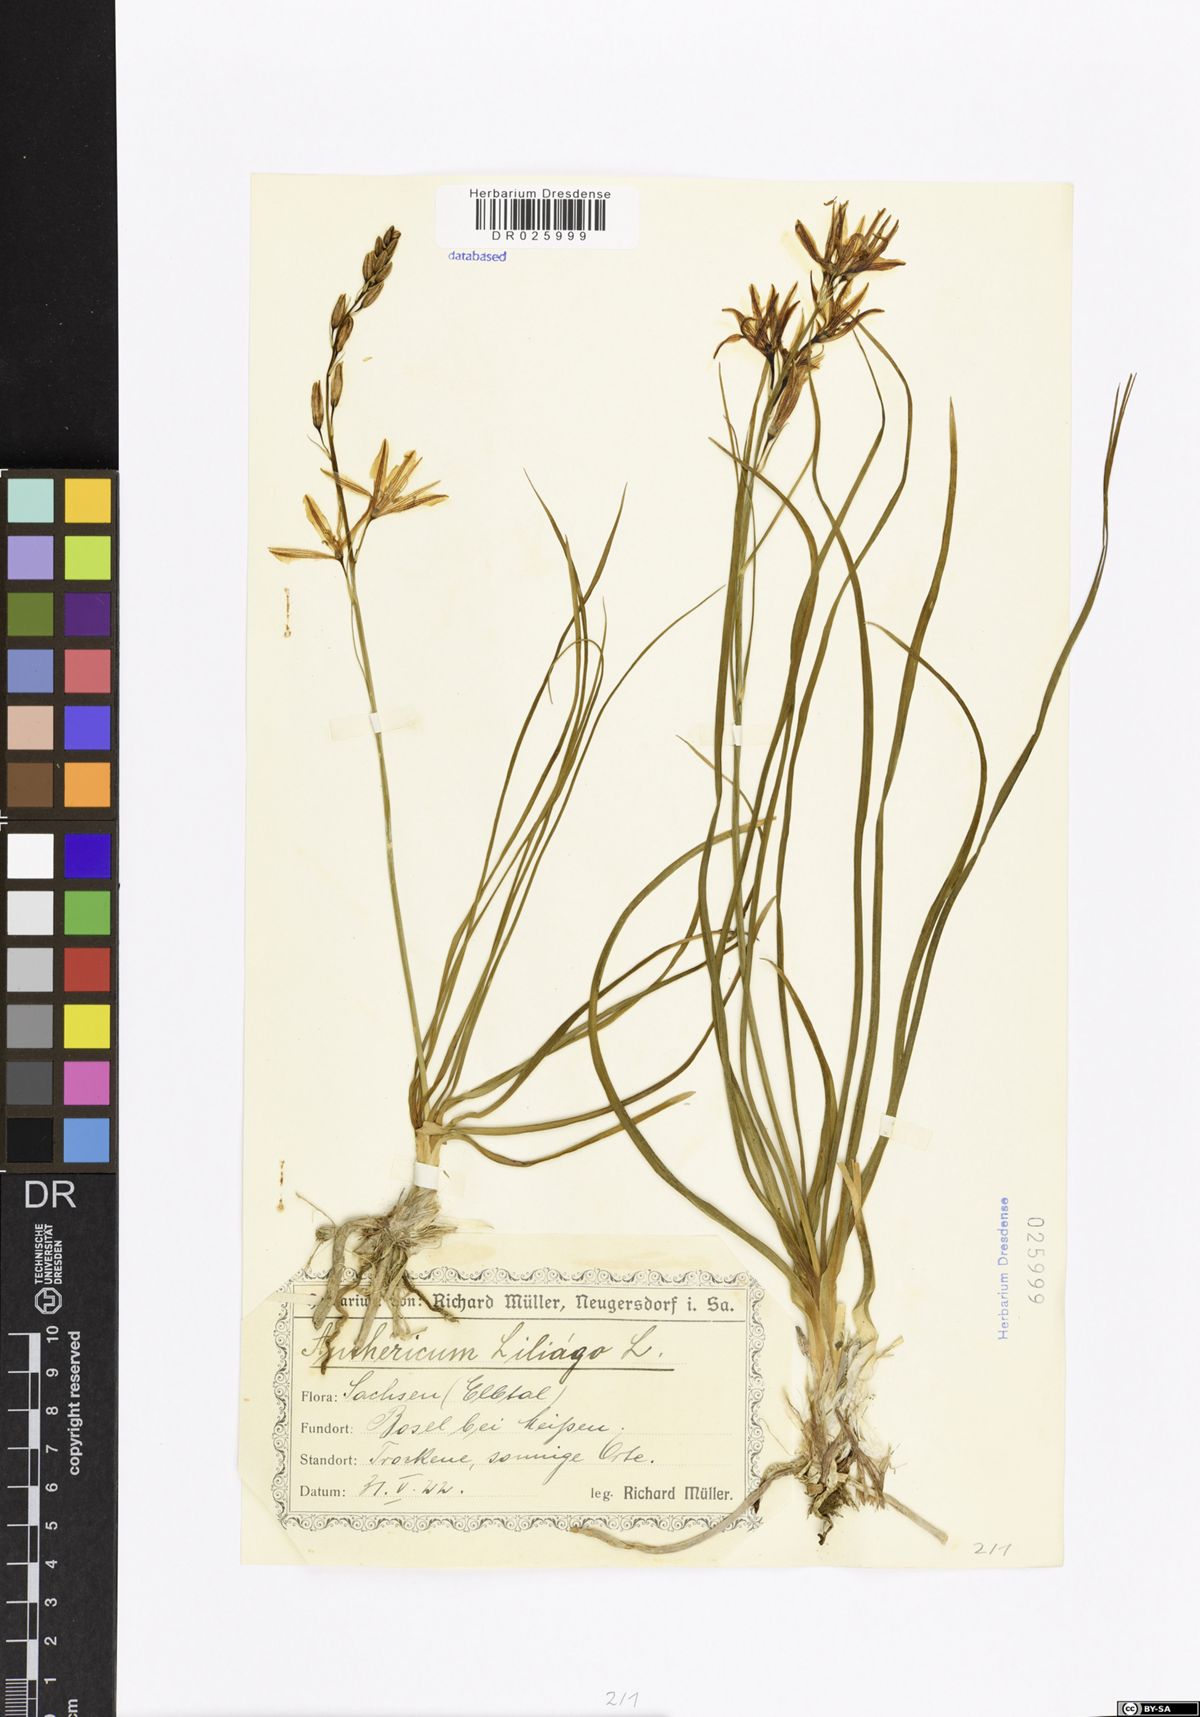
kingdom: Plantae
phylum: Tracheophyta
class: Liliopsida
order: Asparagales
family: Asparagaceae
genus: Anthericum
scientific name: Anthericum liliago
